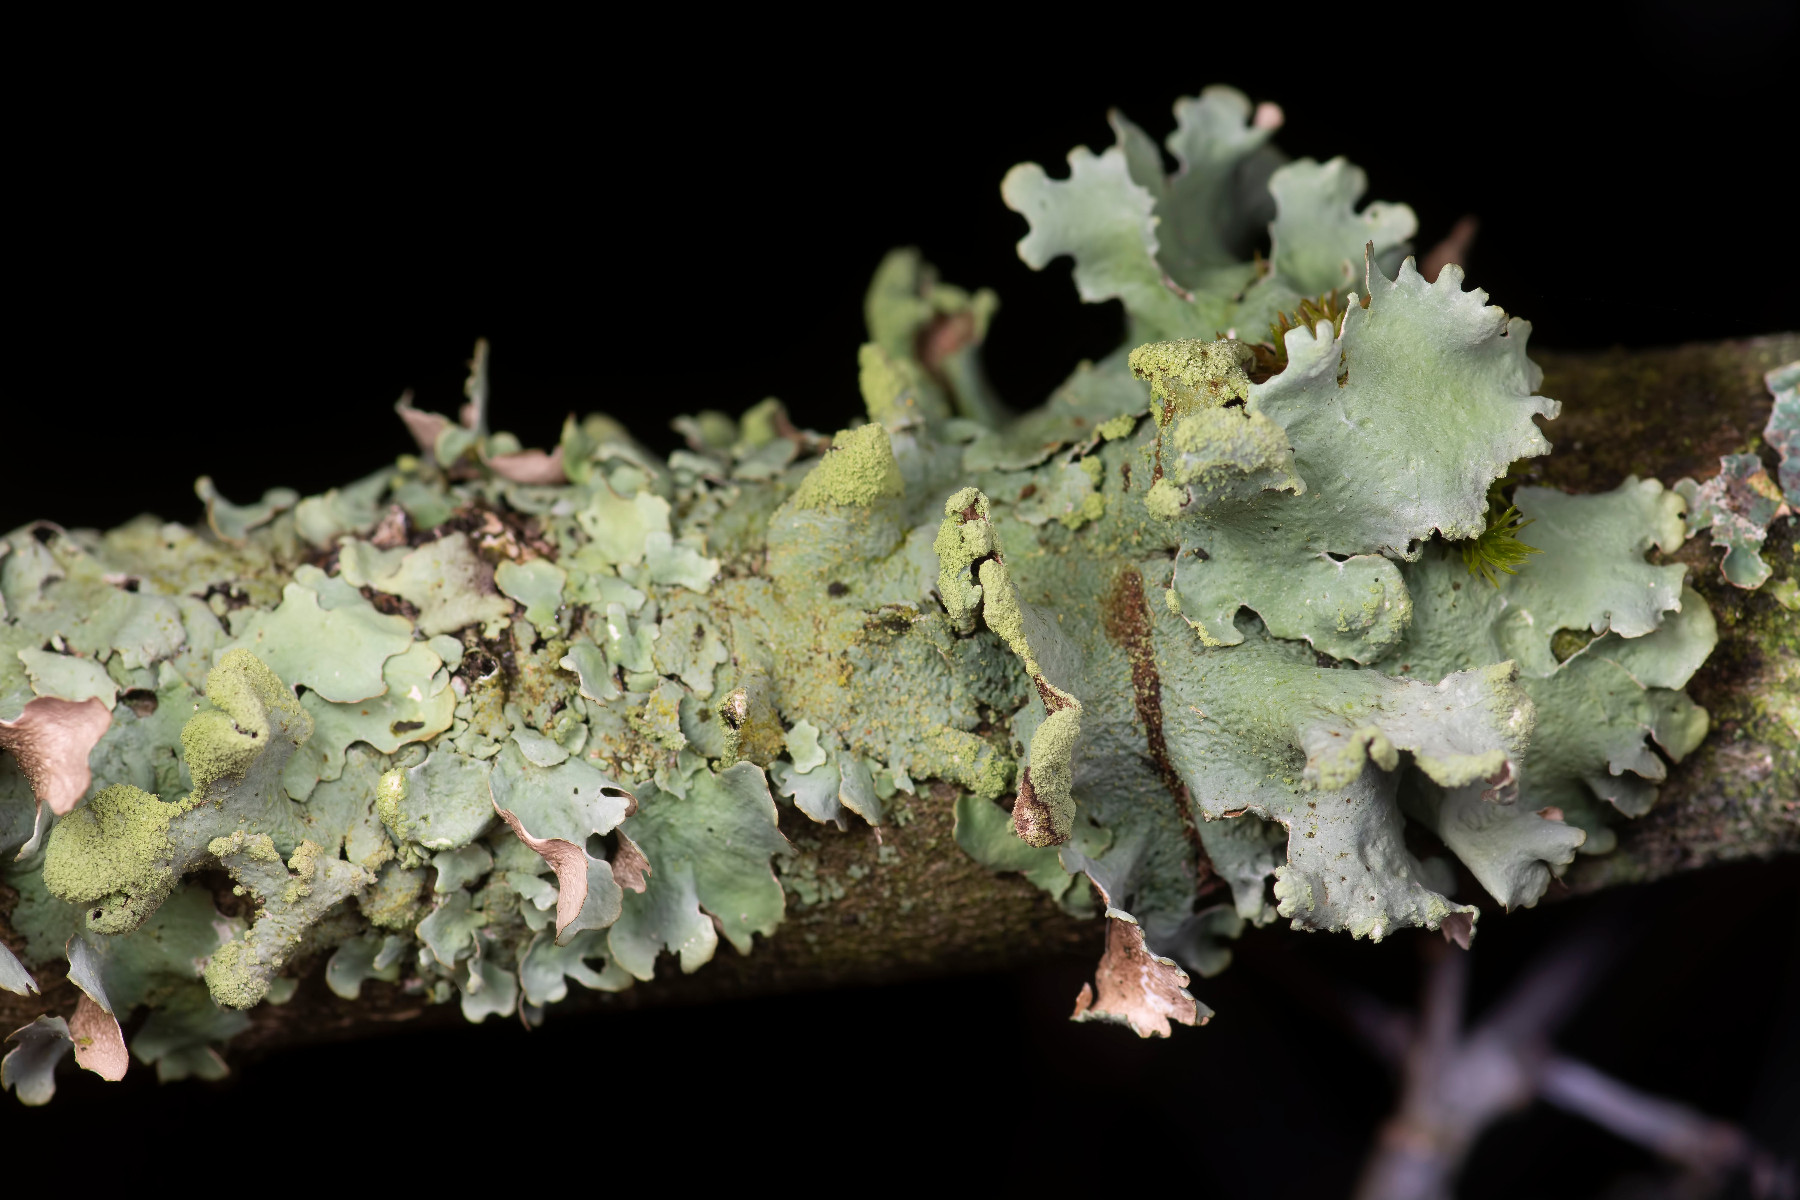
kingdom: Fungi
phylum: Ascomycota
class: Lecanoromycetes
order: Lecanorales
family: Parmeliaceae
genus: Hypotrachyna
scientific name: Hypotrachyna revoluta
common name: bleggrå skållav
